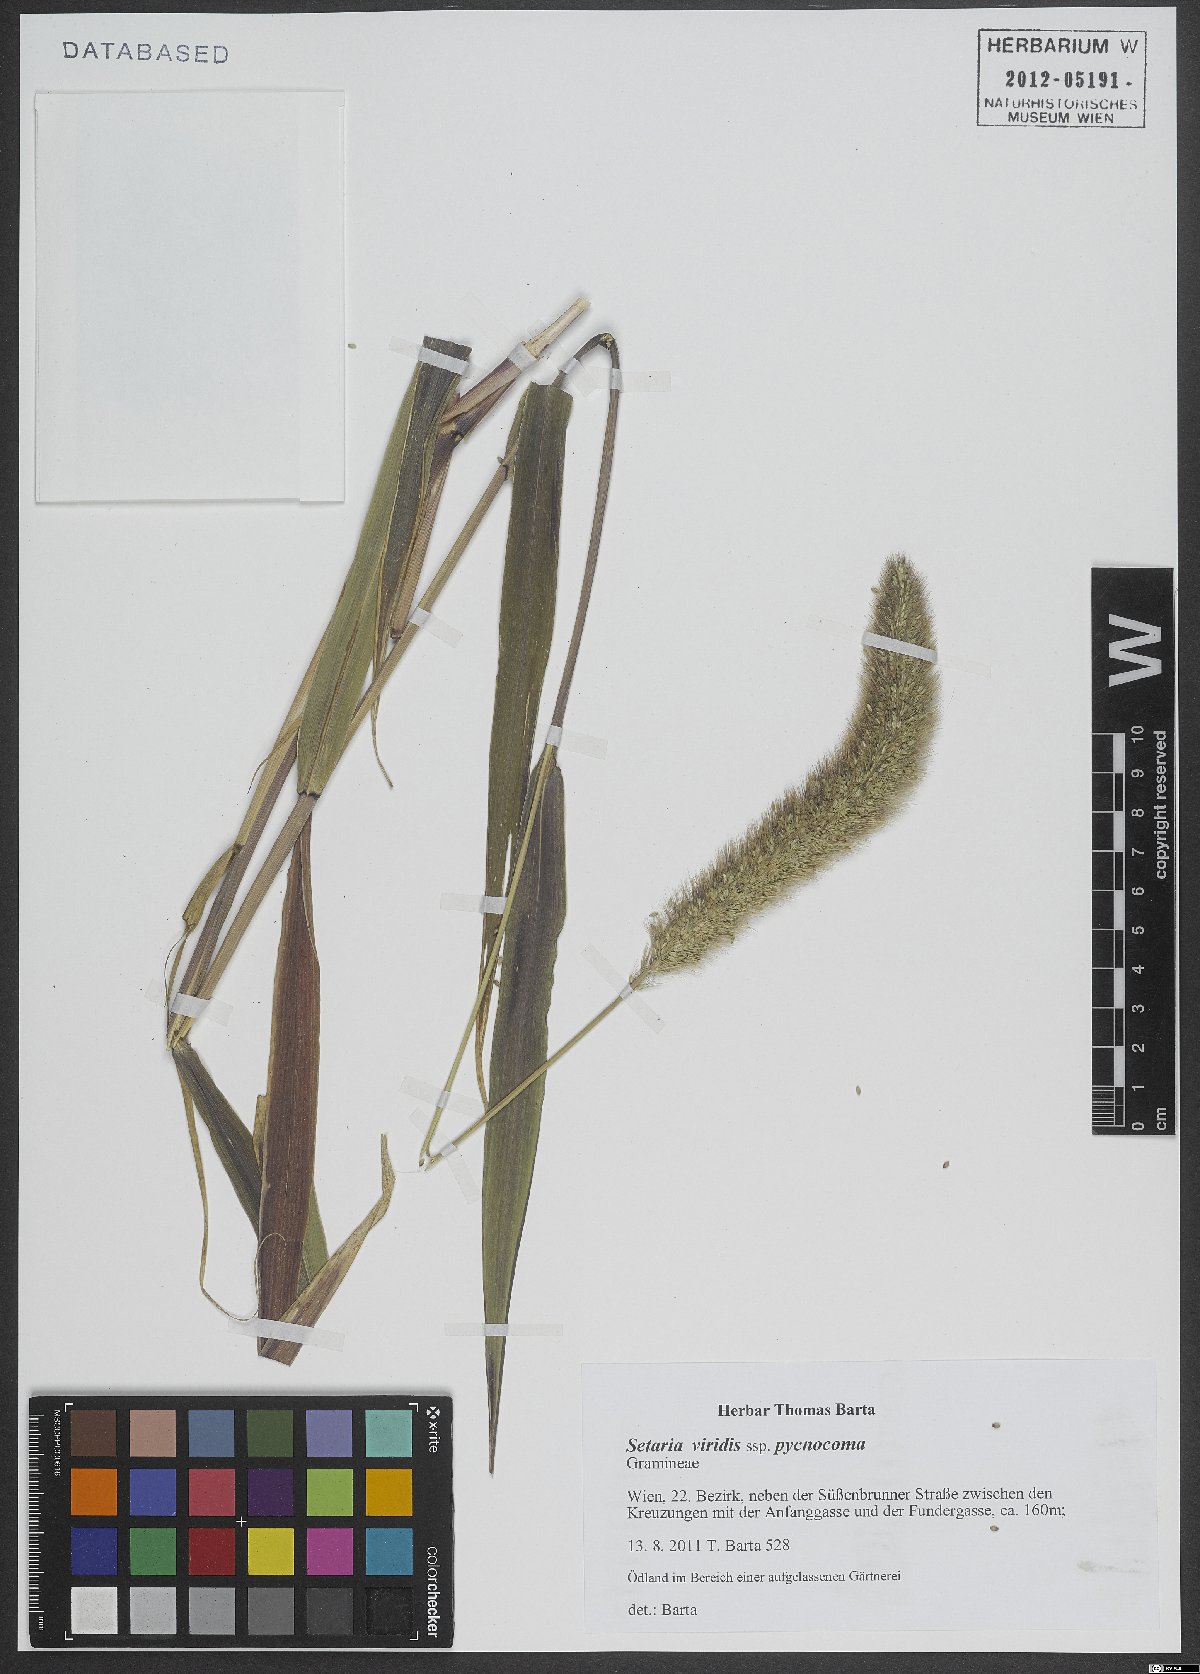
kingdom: Plantae
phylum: Tracheophyta
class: Liliopsida
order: Poales
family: Poaceae
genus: Setaria
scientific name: Setaria viridis
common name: Green bristlegrass
